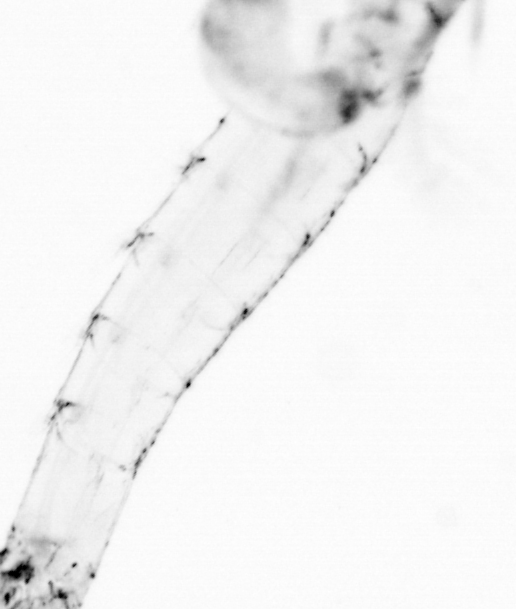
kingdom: Animalia
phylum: Chaetognatha
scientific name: Chaetognatha
